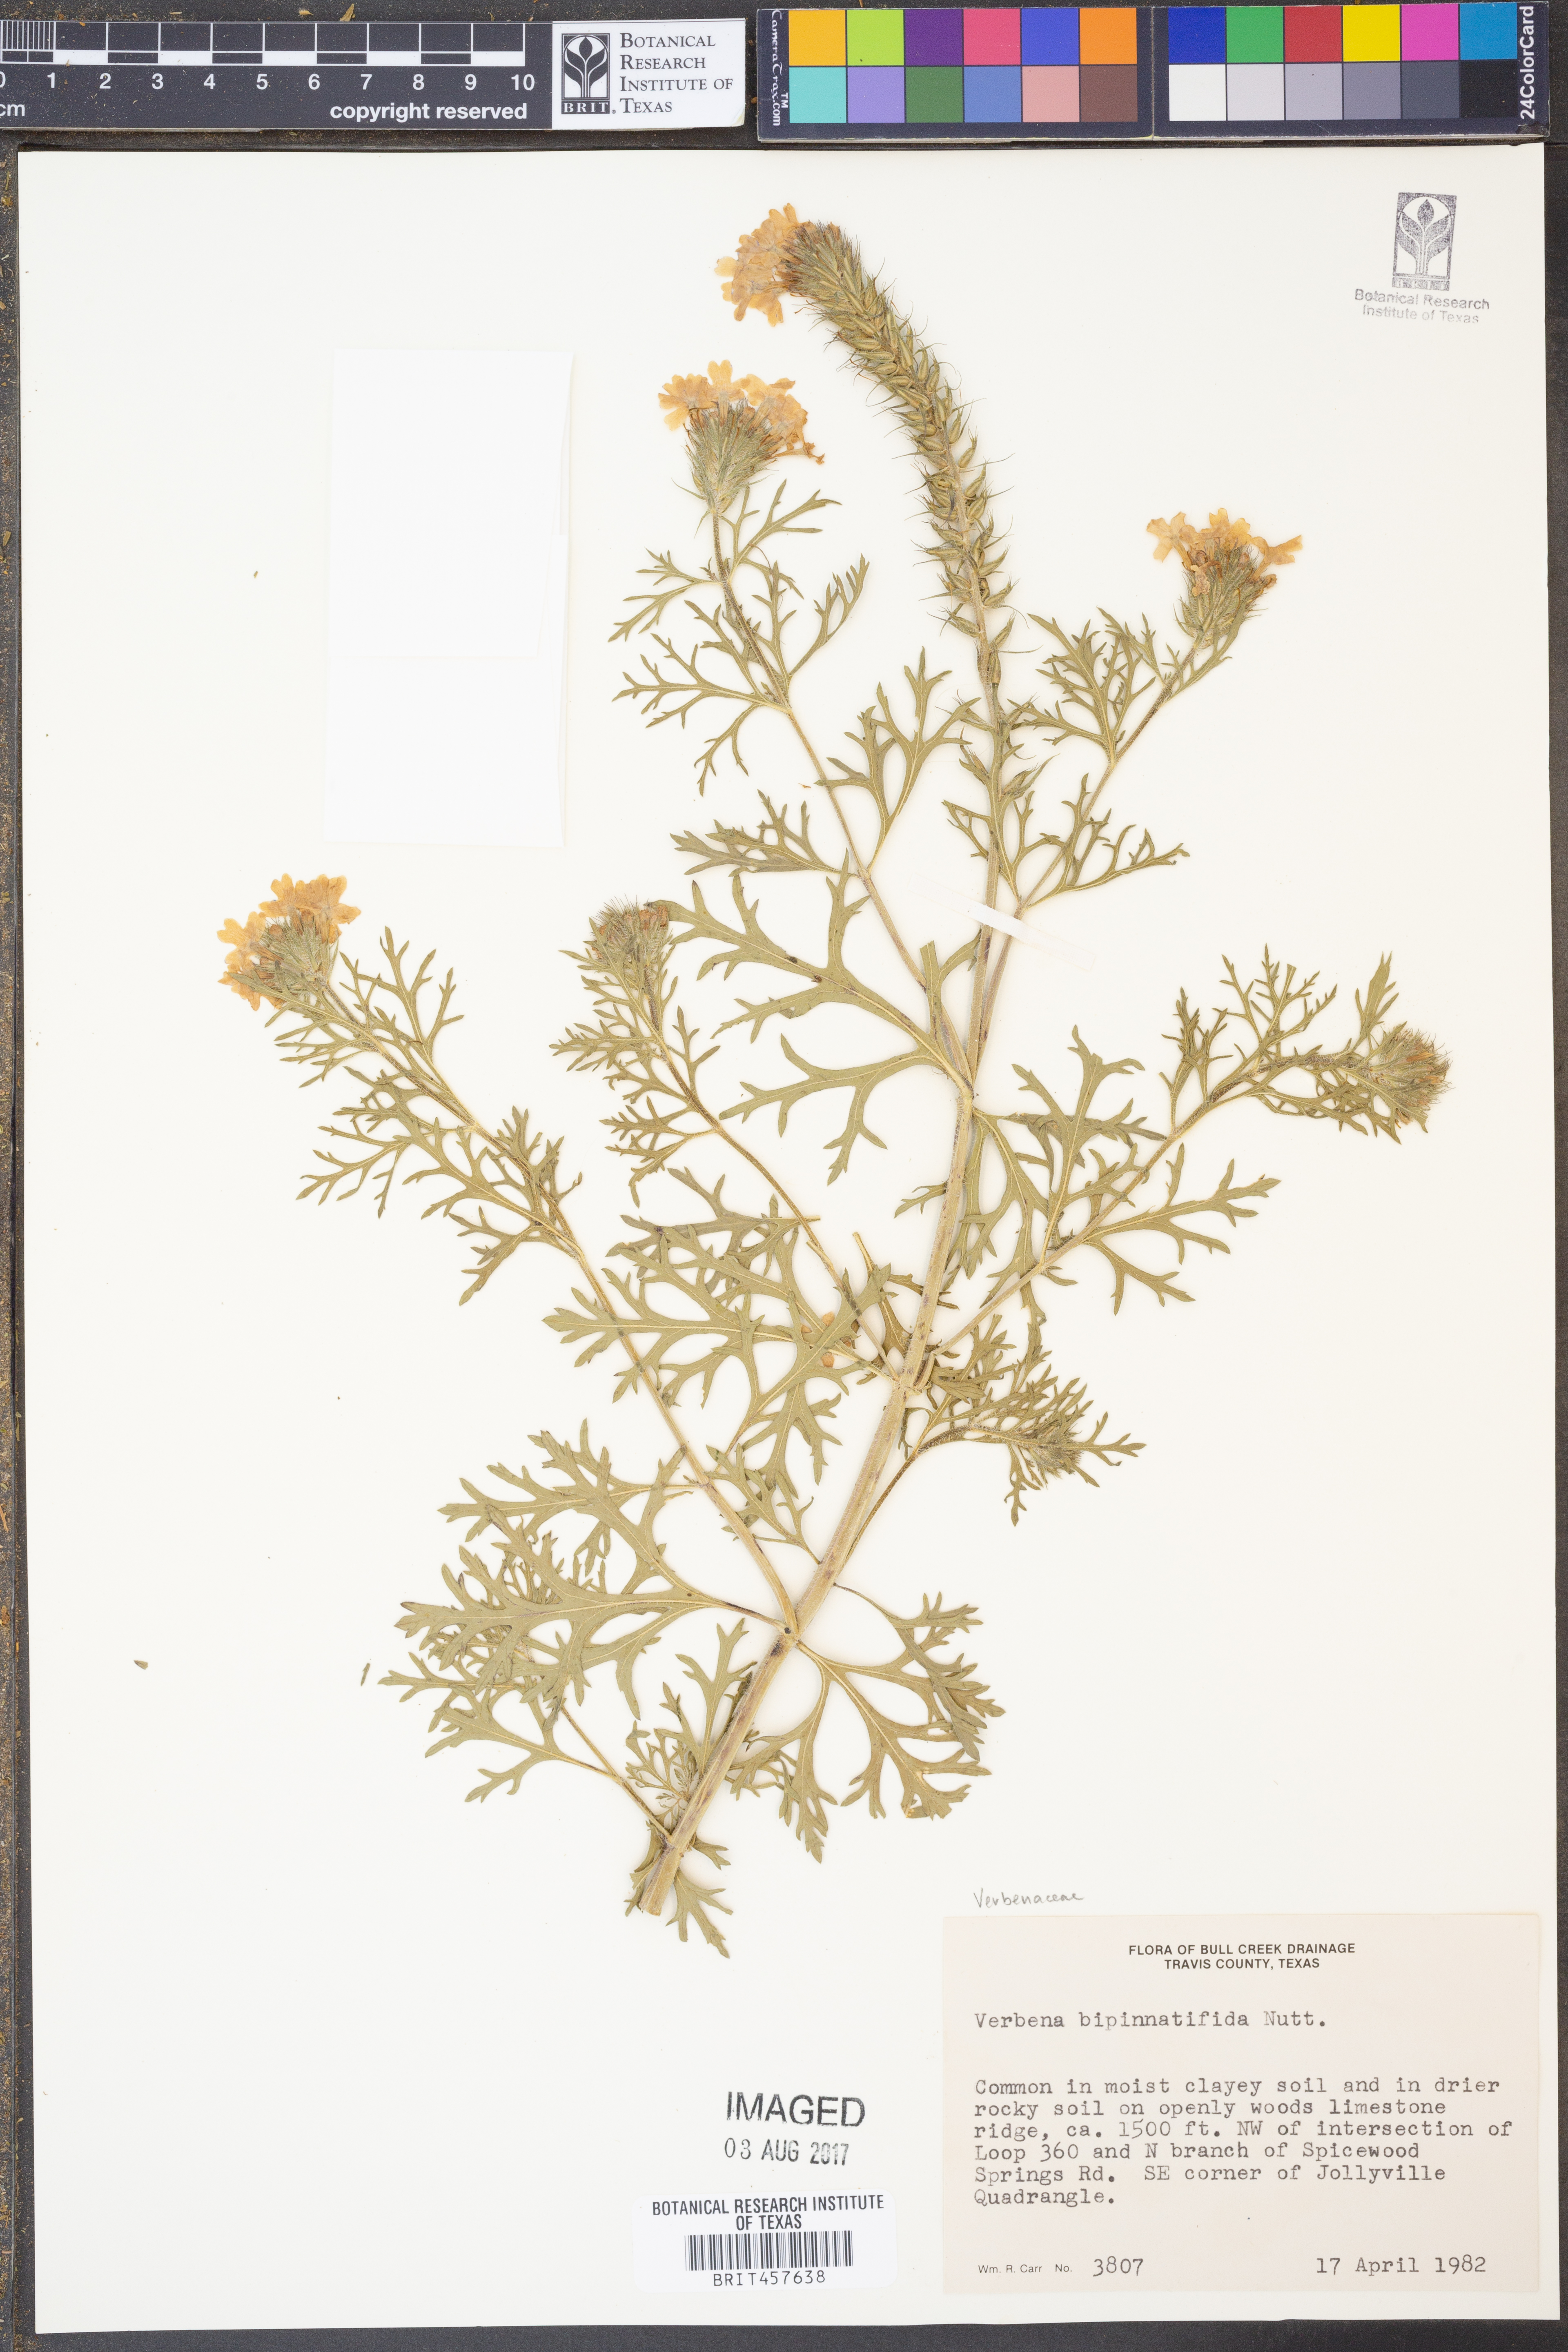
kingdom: Plantae
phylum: Tracheophyta
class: Magnoliopsida
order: Lamiales
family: Verbenaceae
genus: Verbena
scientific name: Verbena bipinnatifida
